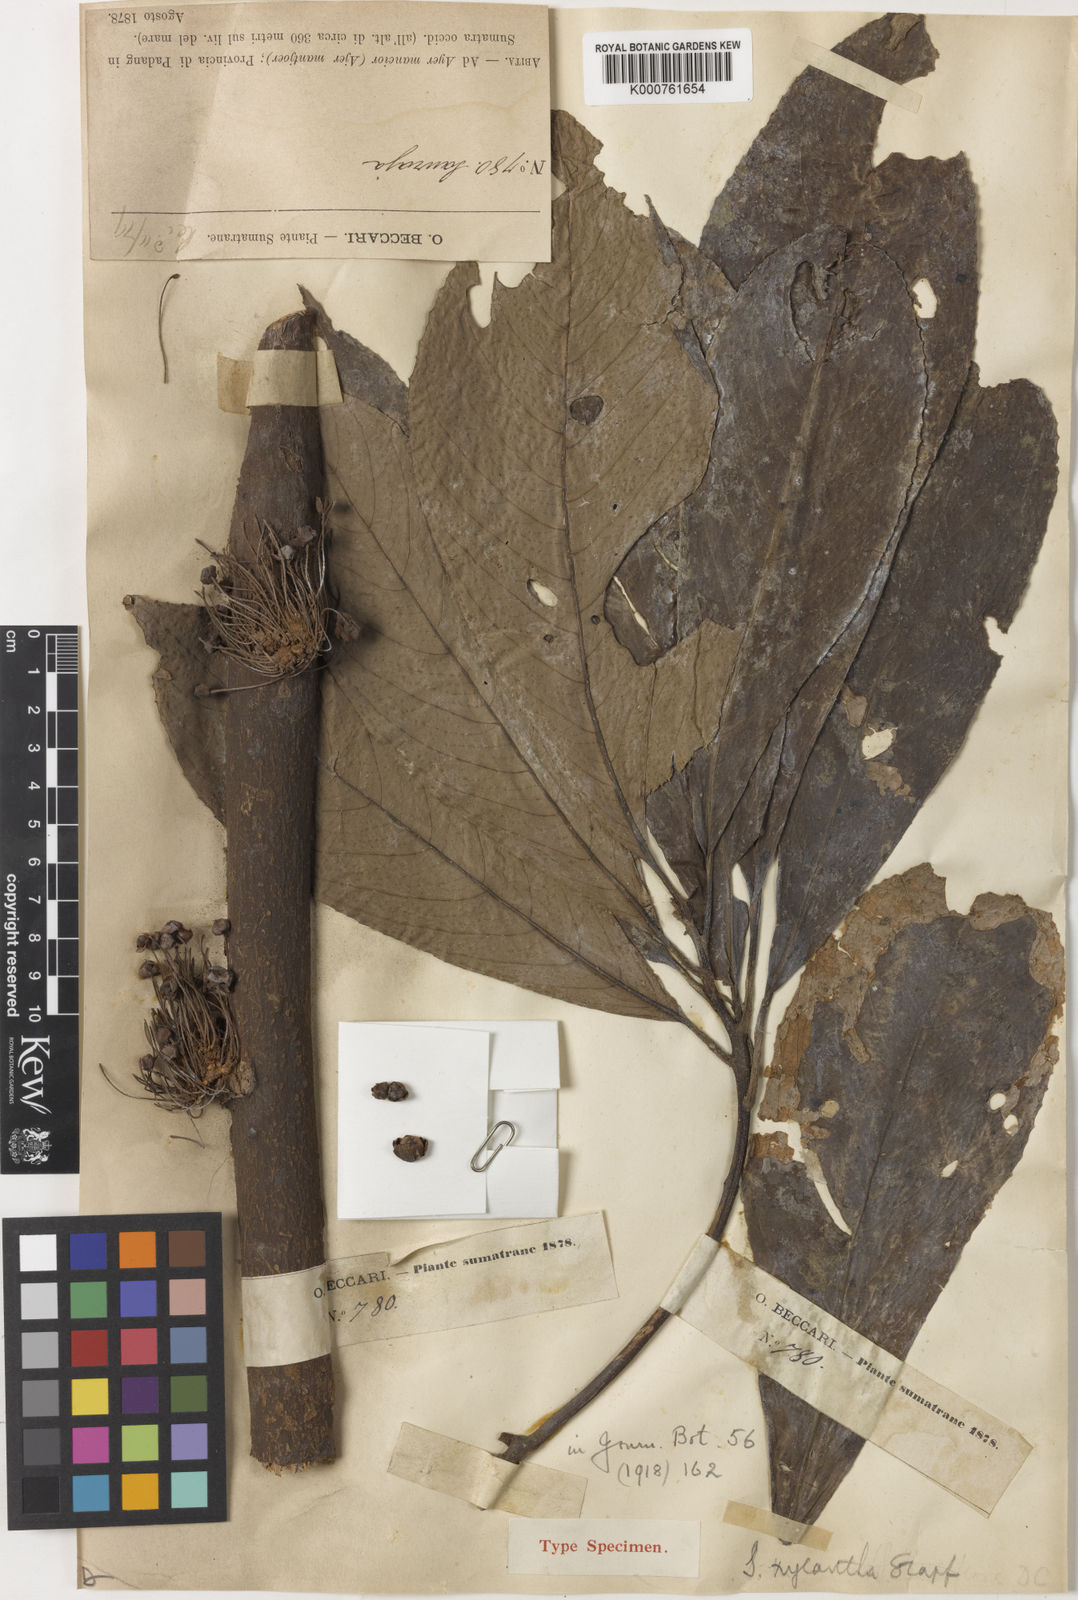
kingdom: Plantae
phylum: Tracheophyta
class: Magnoliopsida
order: Ericales
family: Actinidiaceae
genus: Saurauia
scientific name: Saurauia xylantha
